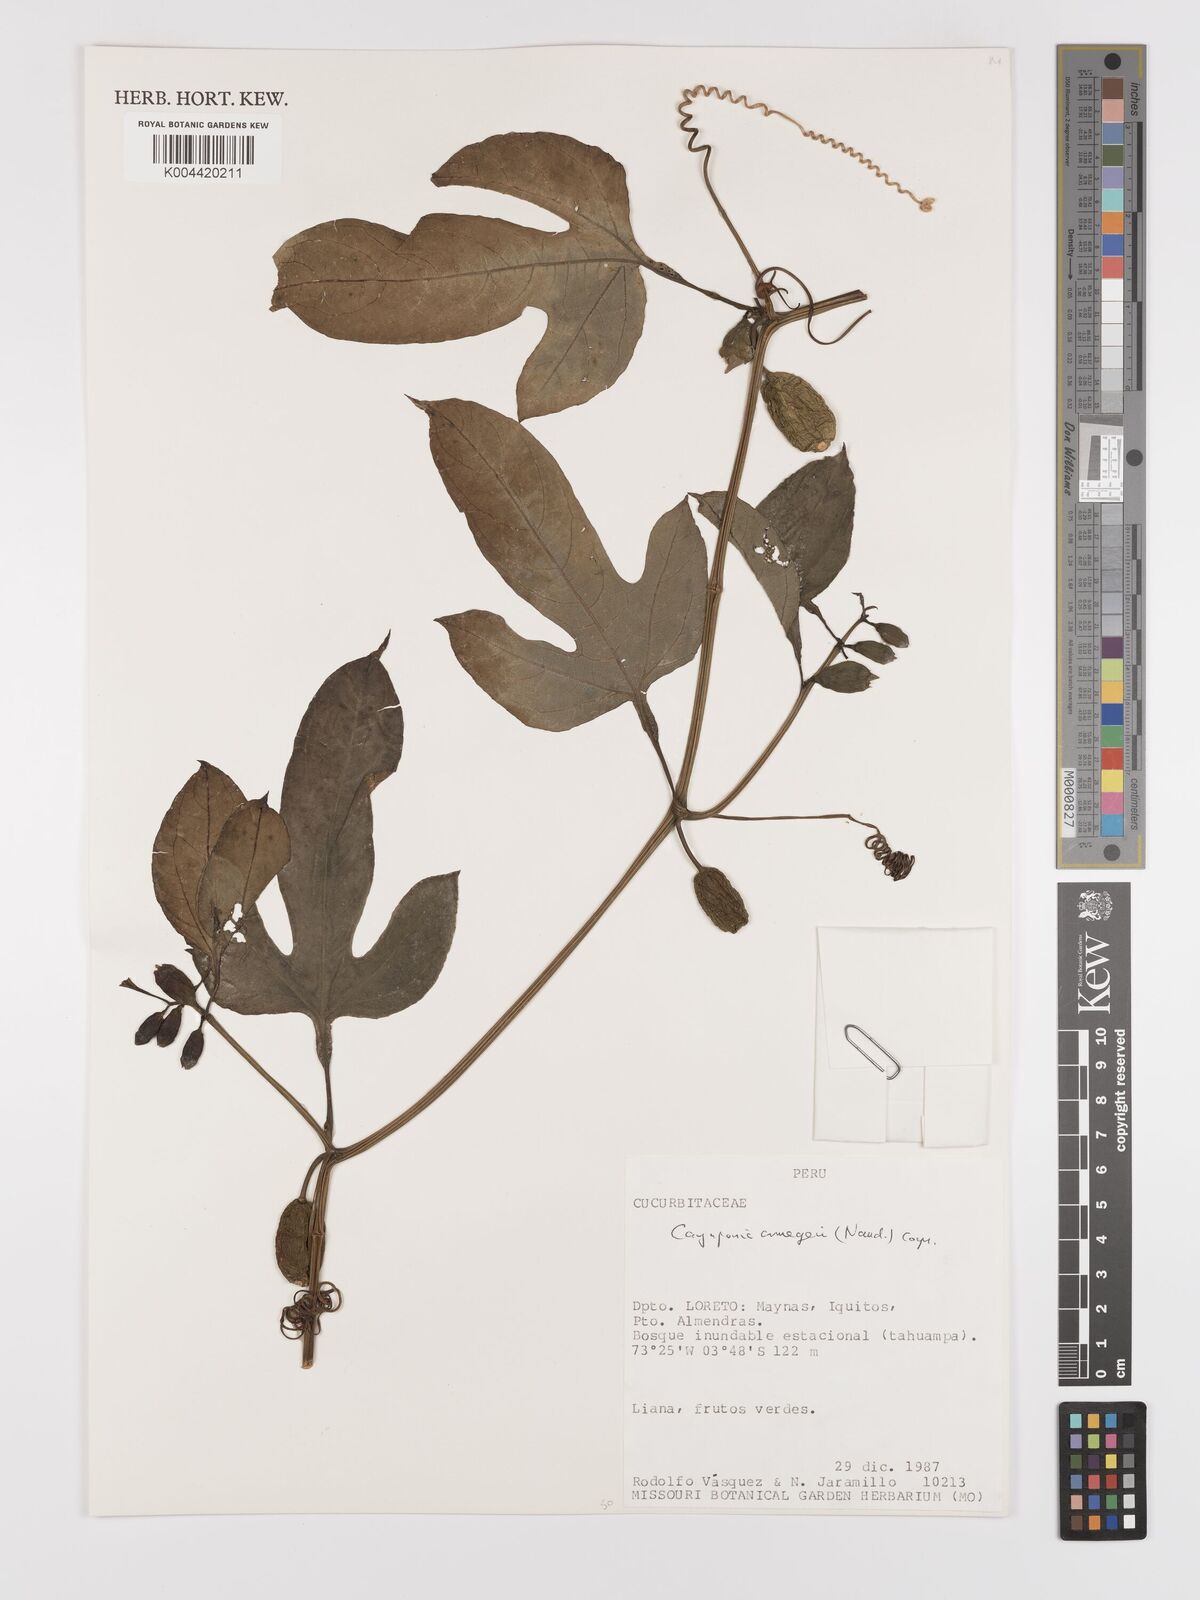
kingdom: Plantae
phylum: Tracheophyta
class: Magnoliopsida
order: Cucurbitales
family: Cucurbitaceae
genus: Cayaponia
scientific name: Cayaponia cruegeri
